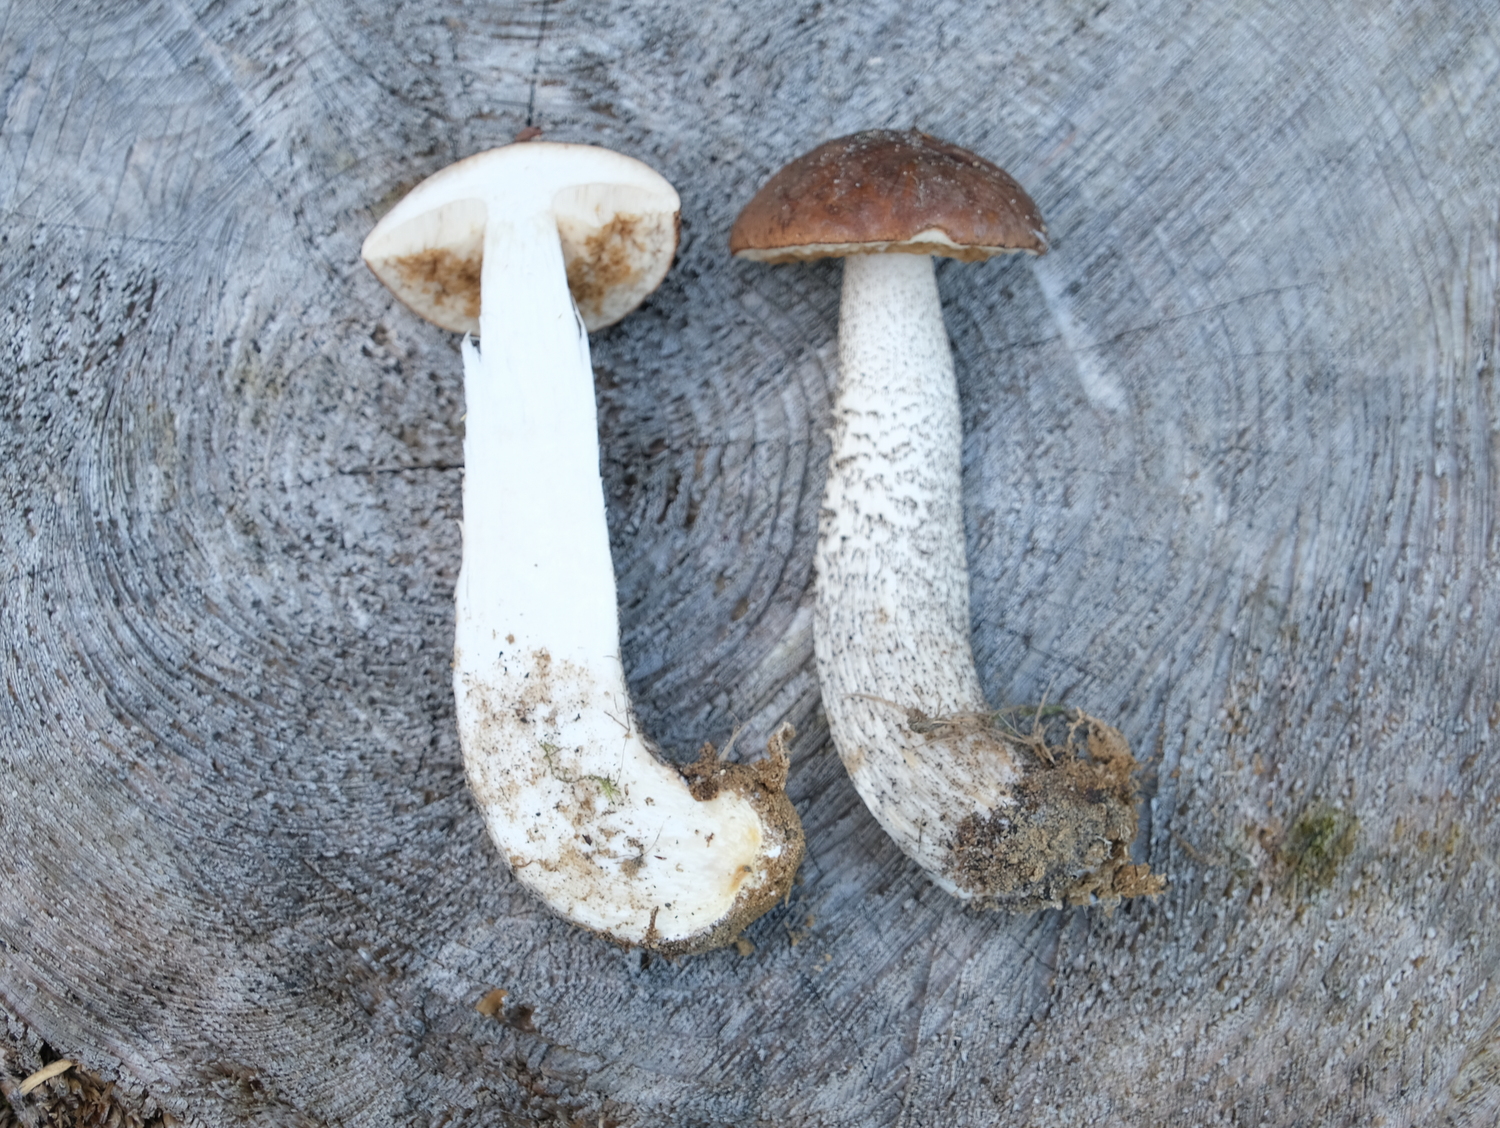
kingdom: Fungi
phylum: Basidiomycota
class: Agaricomycetes
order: Boletales
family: Boletaceae
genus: Leccinum
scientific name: Leccinum scabrum
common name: brun skælrørhat
